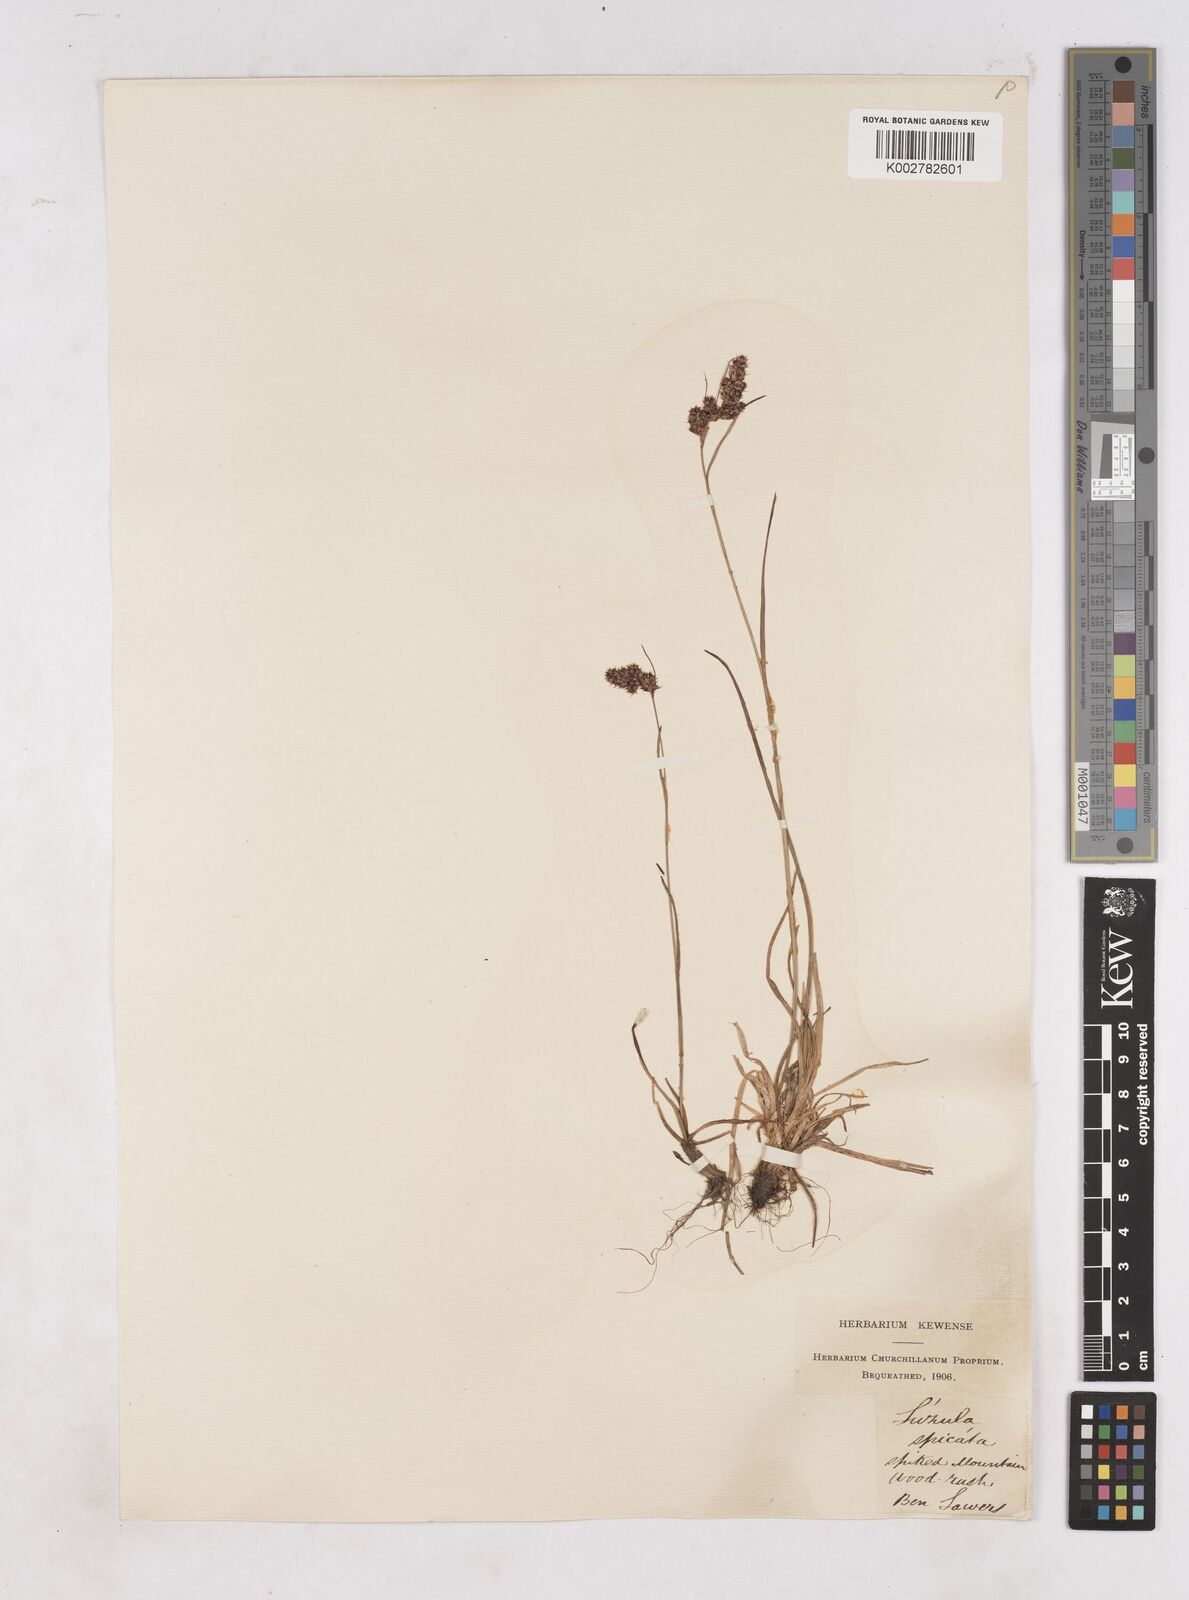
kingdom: Plantae
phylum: Tracheophyta
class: Liliopsida
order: Poales
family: Juncaceae
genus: Luzula
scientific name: Luzula spicata
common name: Spiked wood-rush
